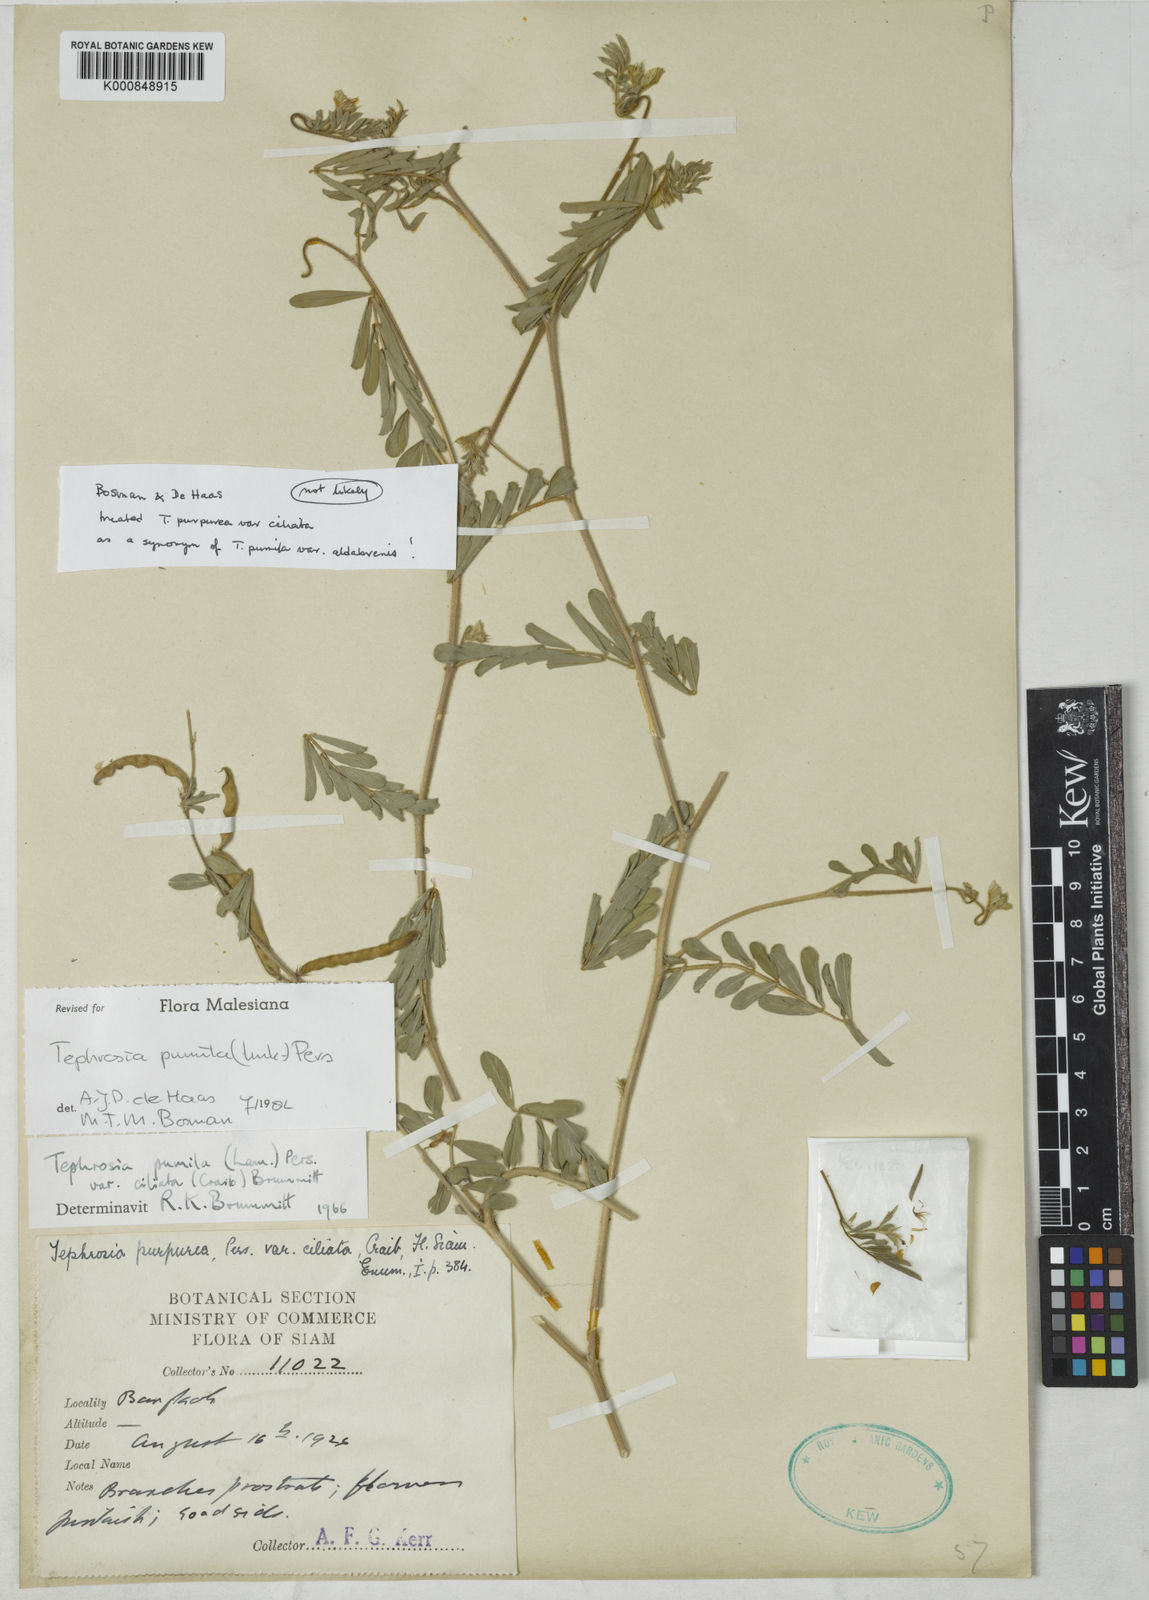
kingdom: Plantae
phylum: Tracheophyta
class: Magnoliopsida
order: Fabales
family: Fabaceae
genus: Tephrosia
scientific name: Tephrosia purpurea
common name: Fishpoison
